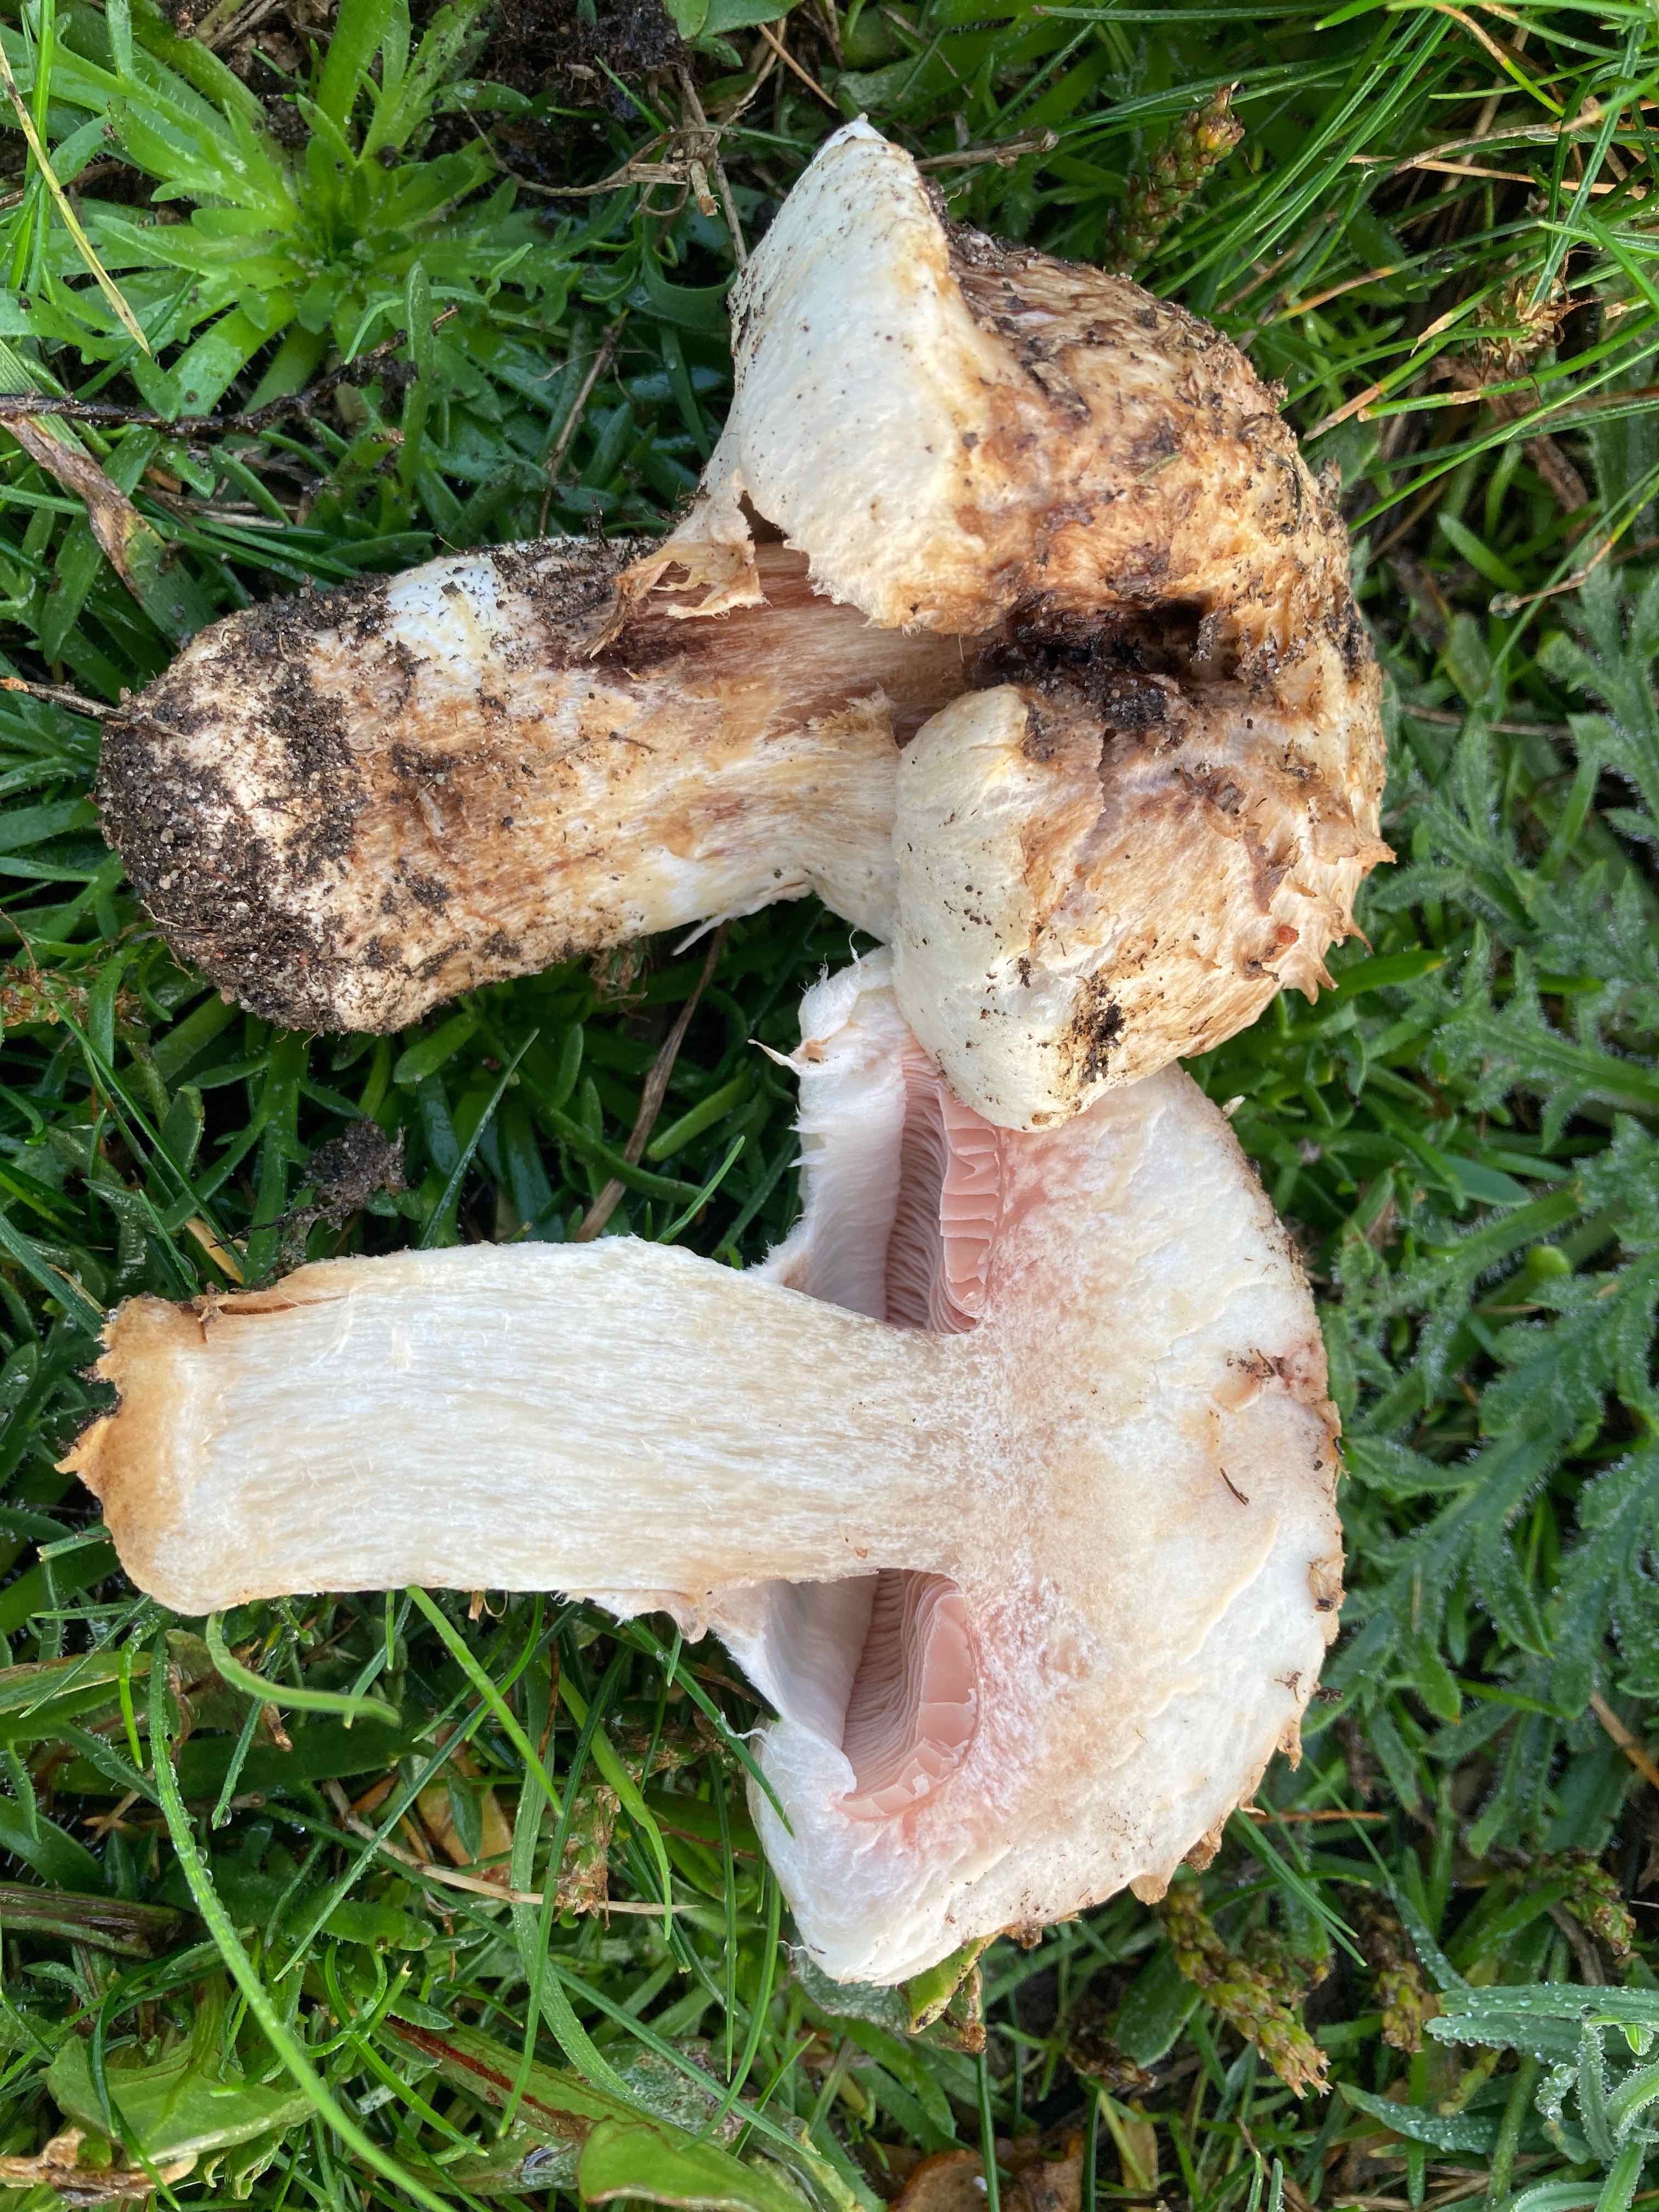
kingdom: Fungi
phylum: Basidiomycota
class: Agaricomycetes
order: Agaricales
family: Agaricaceae
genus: Agaricus
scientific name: Agaricus bernardii
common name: strandengs-champignon
